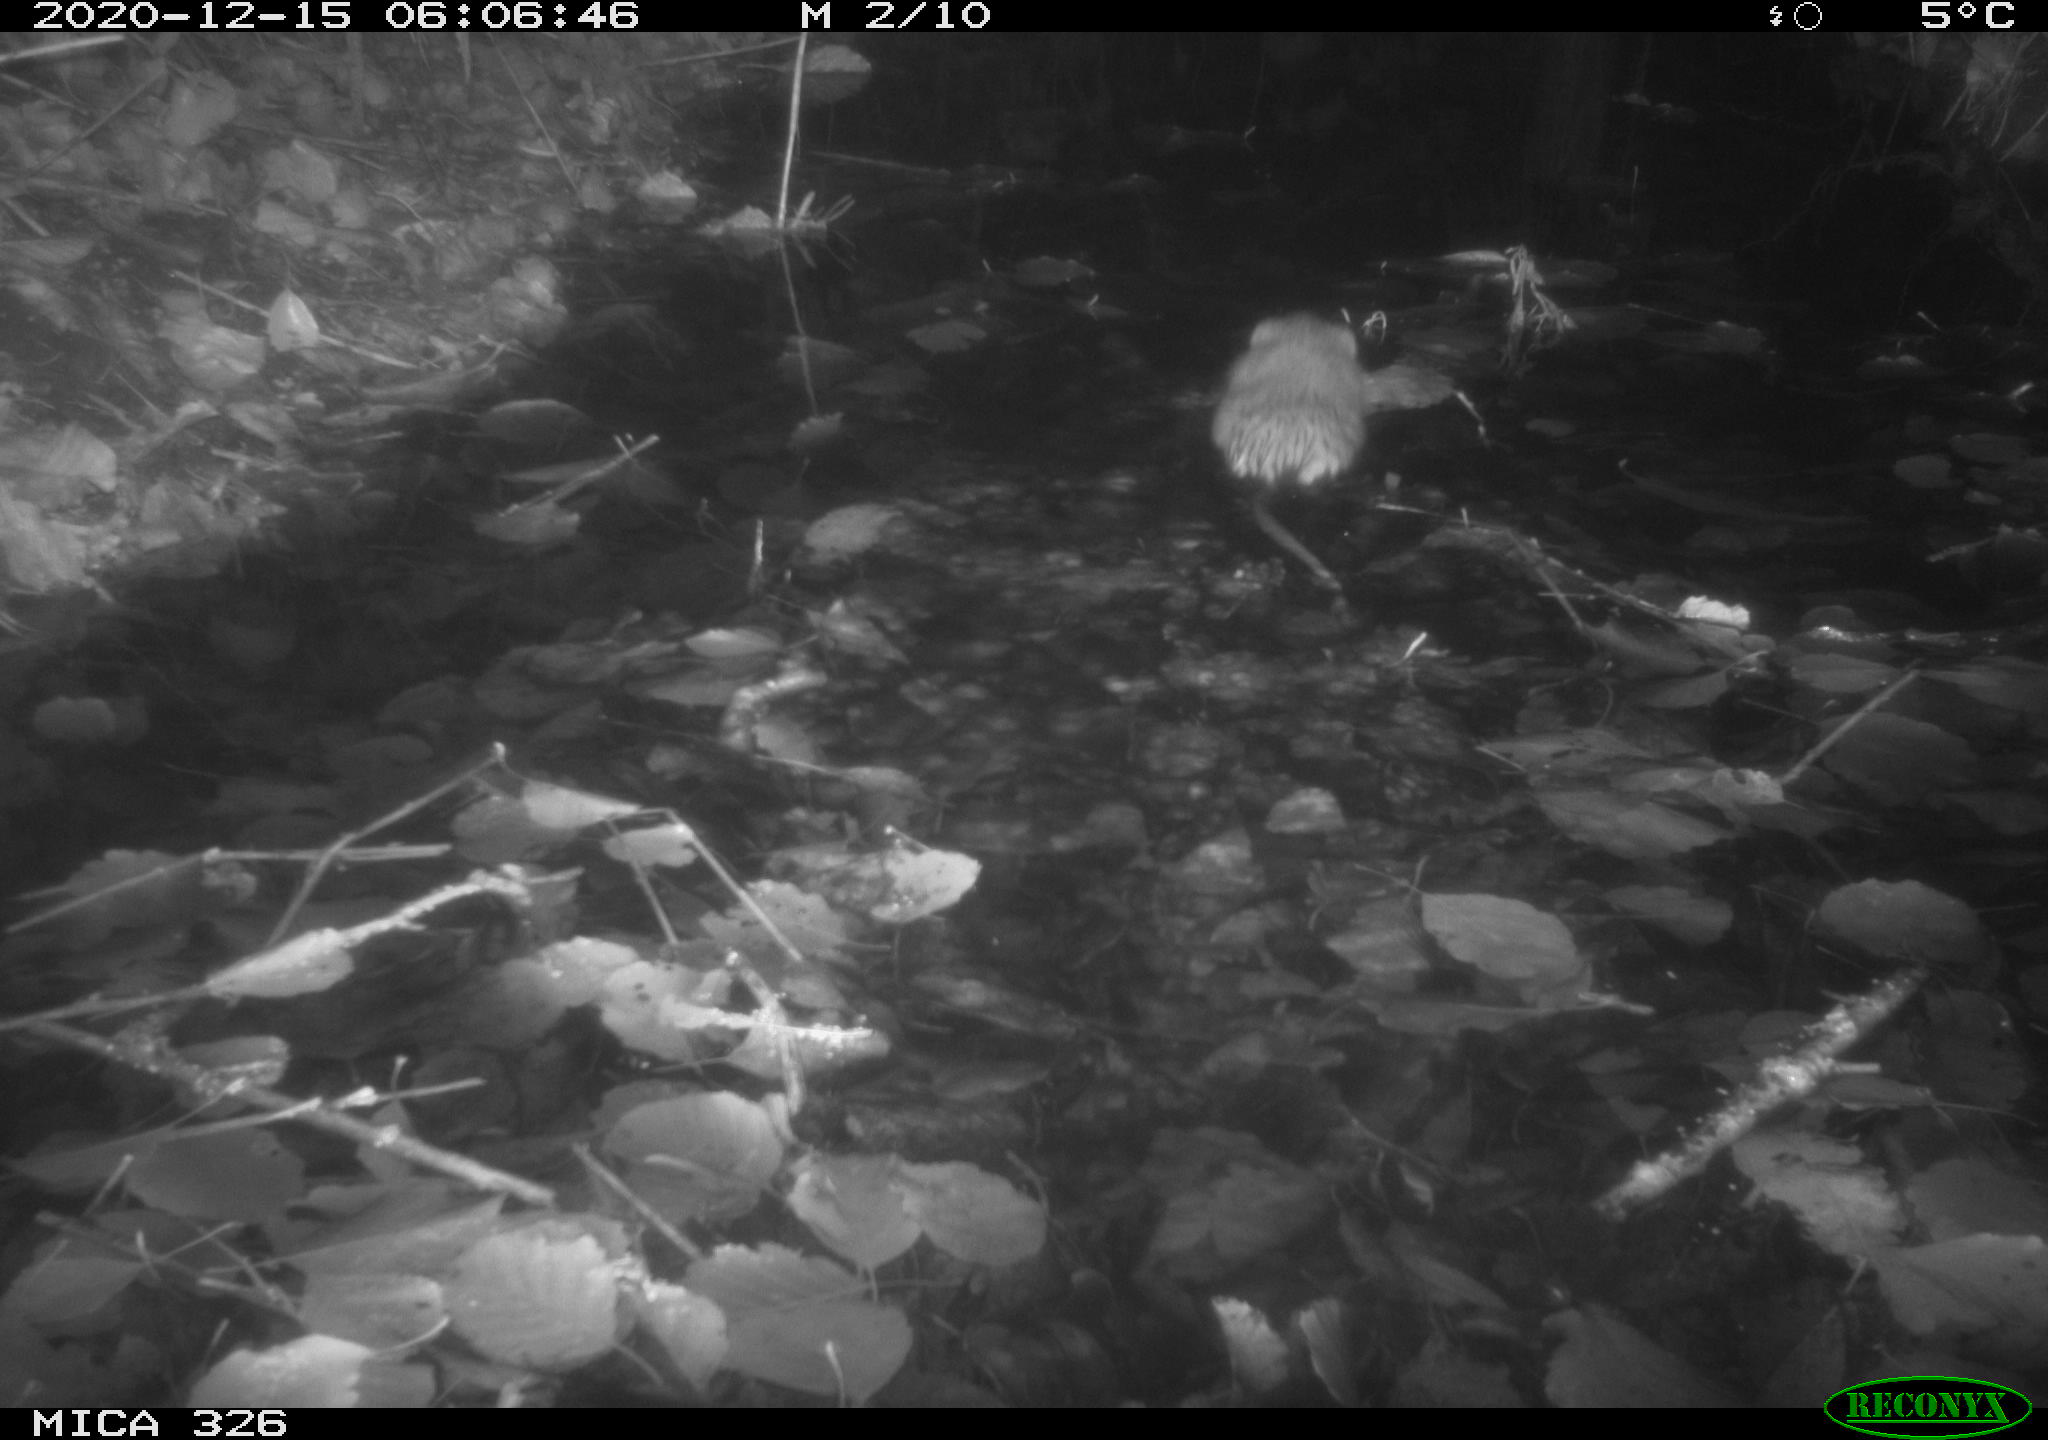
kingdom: Animalia
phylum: Chordata
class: Mammalia
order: Rodentia
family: Cricetidae
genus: Ondatra
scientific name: Ondatra zibethicus
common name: Muskrat
